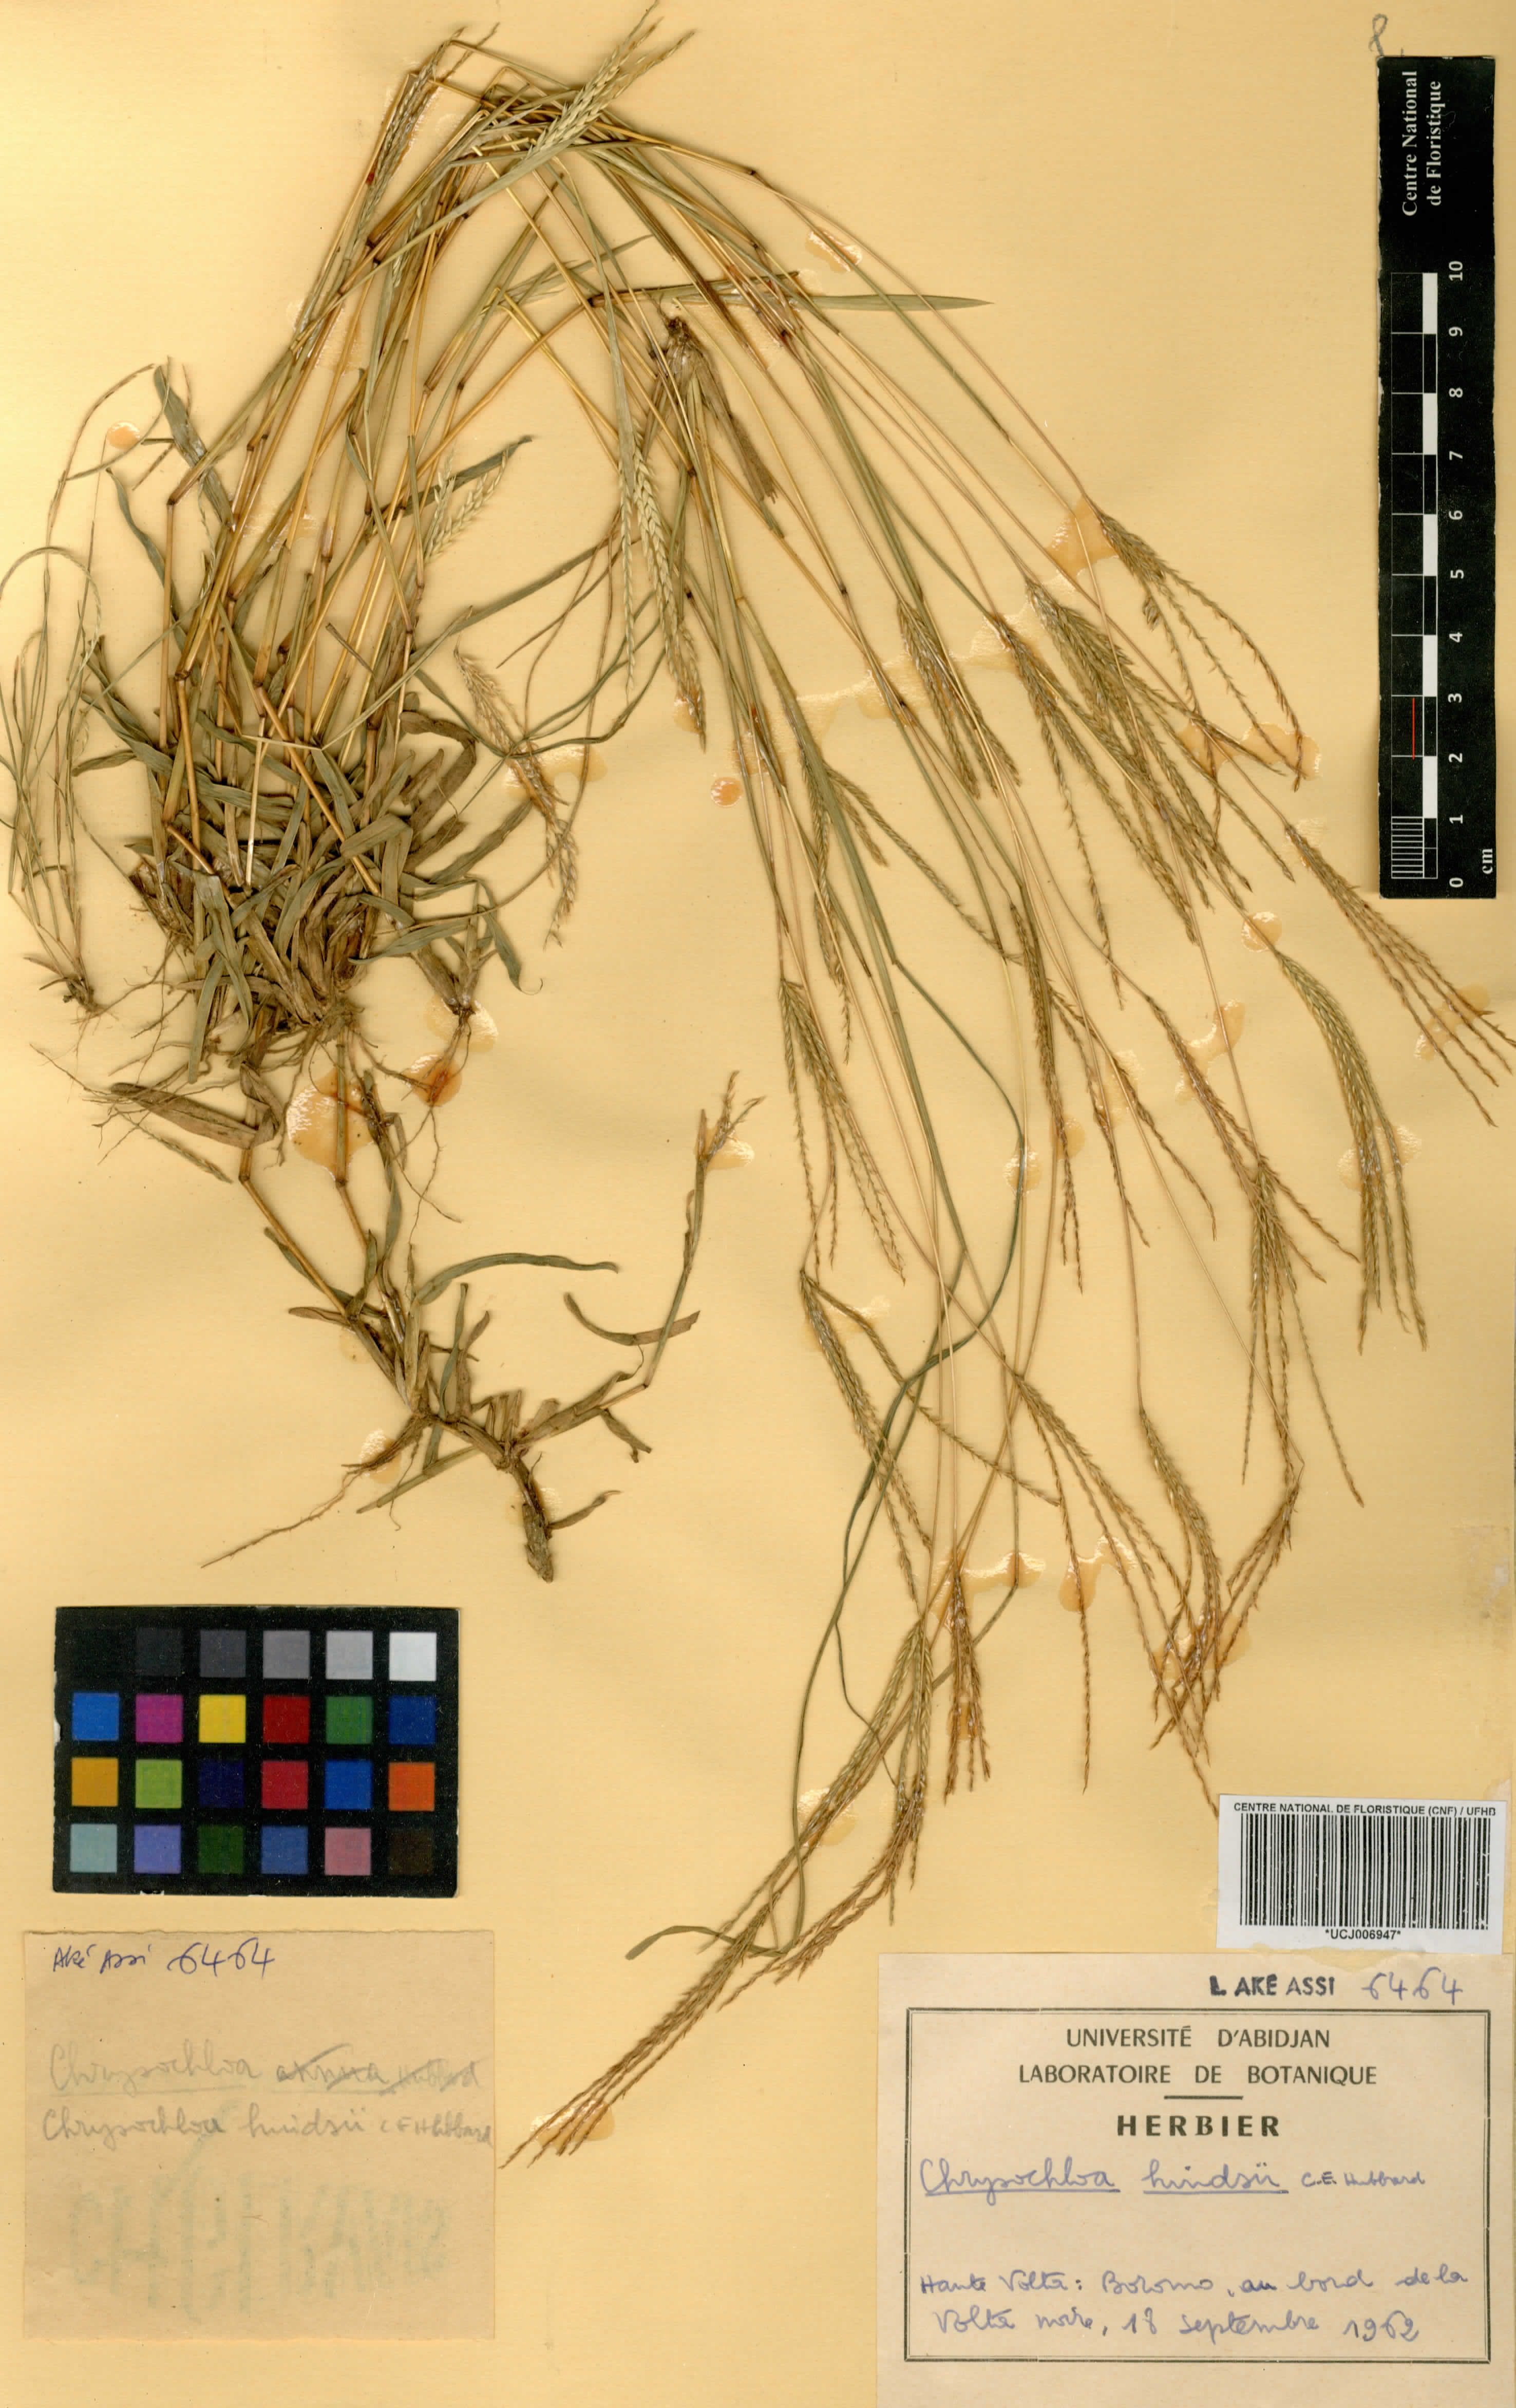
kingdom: Plantae
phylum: Tracheophyta
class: Liliopsida
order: Poales
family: Poaceae
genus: Chrysochloa
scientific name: Chrysochloa hindsii
